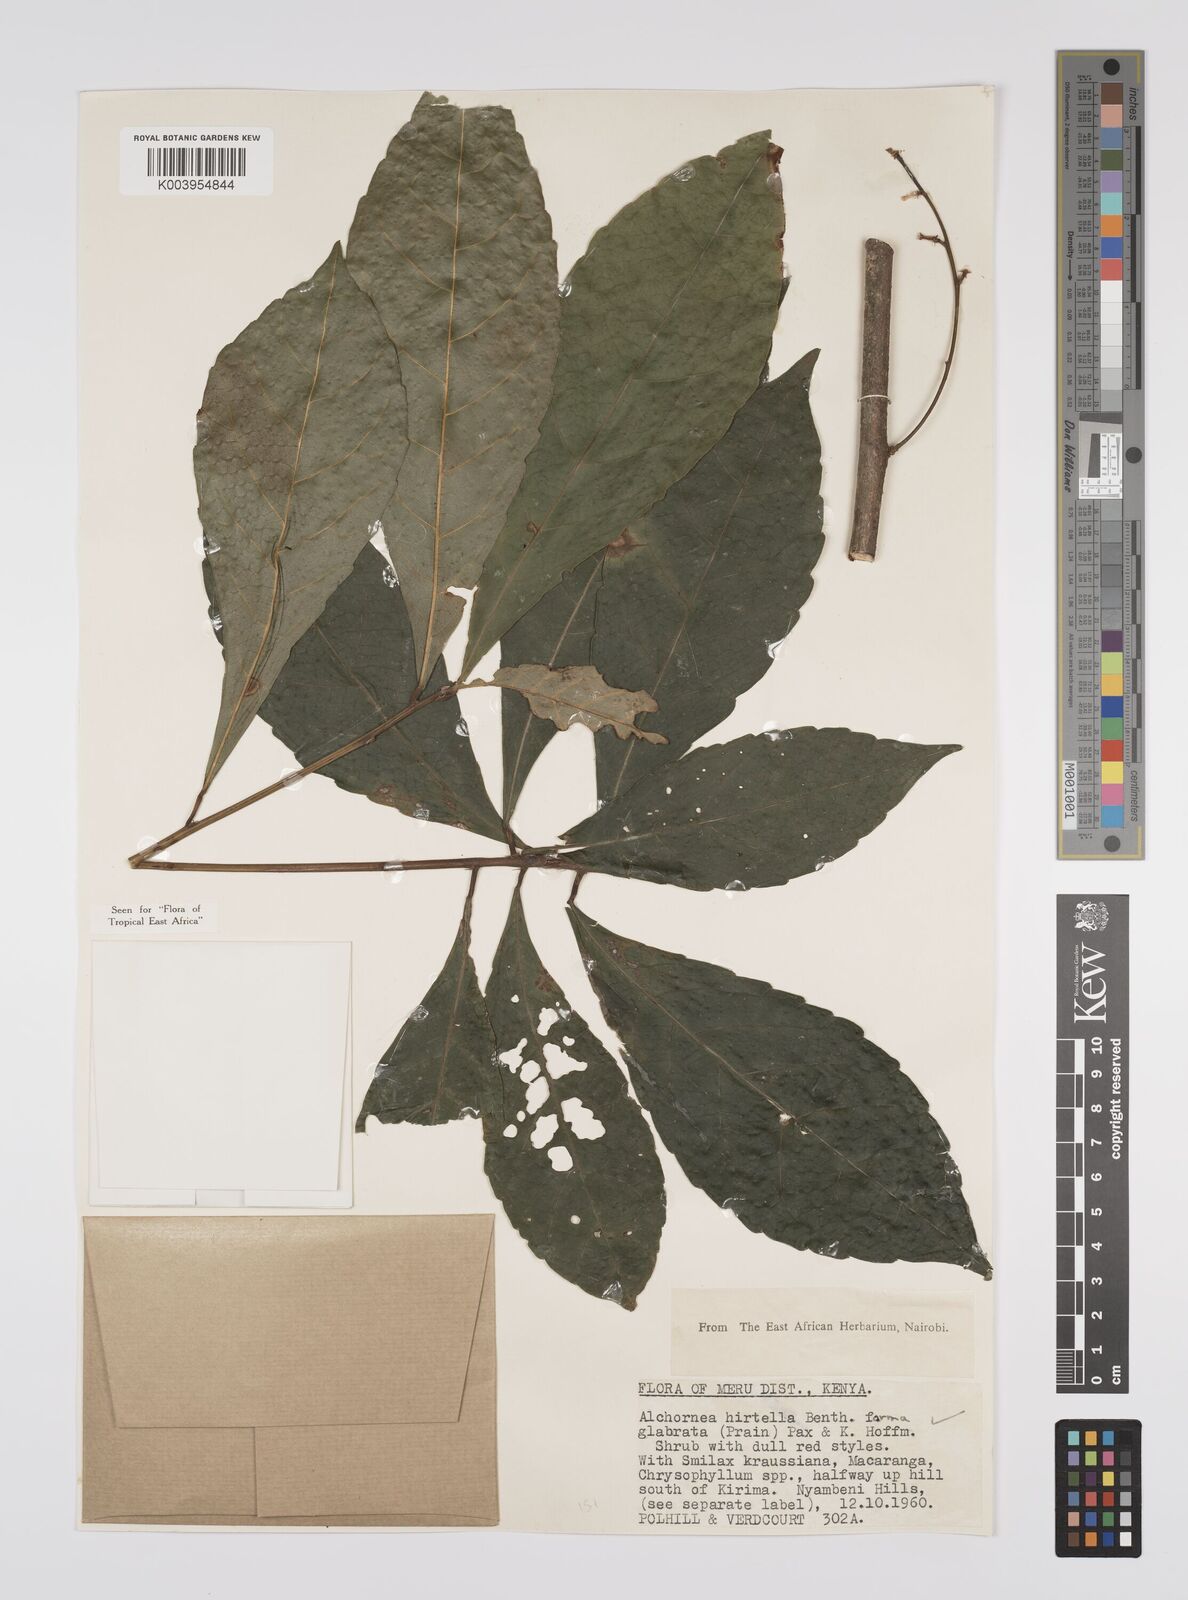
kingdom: Plantae
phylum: Tracheophyta
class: Magnoliopsida
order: Malpighiales
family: Euphorbiaceae
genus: Alchornea
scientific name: Alchornea hirtella
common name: Forest bead-string
